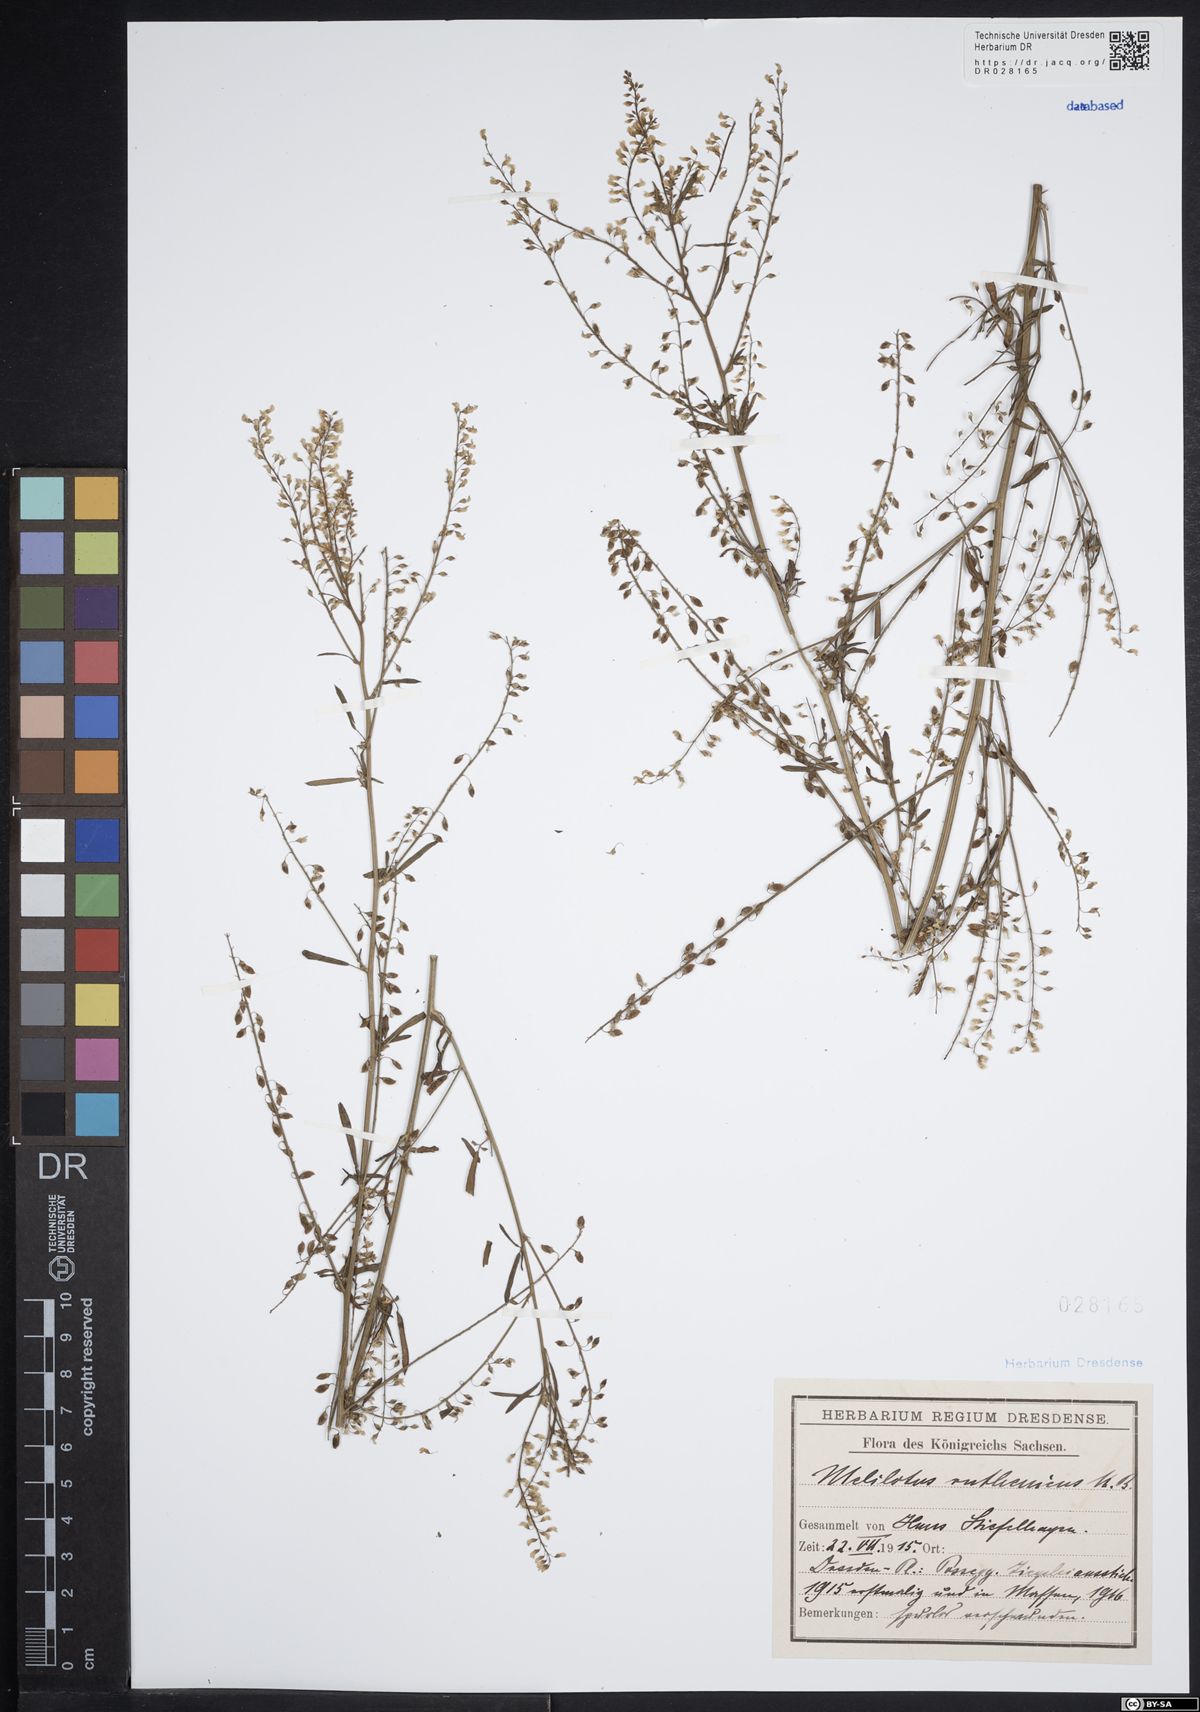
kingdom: Plantae
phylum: Tracheophyta
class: Magnoliopsida
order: Fabales
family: Fabaceae
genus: Melilotus
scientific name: Melilotus officinalis
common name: Sweetclover
